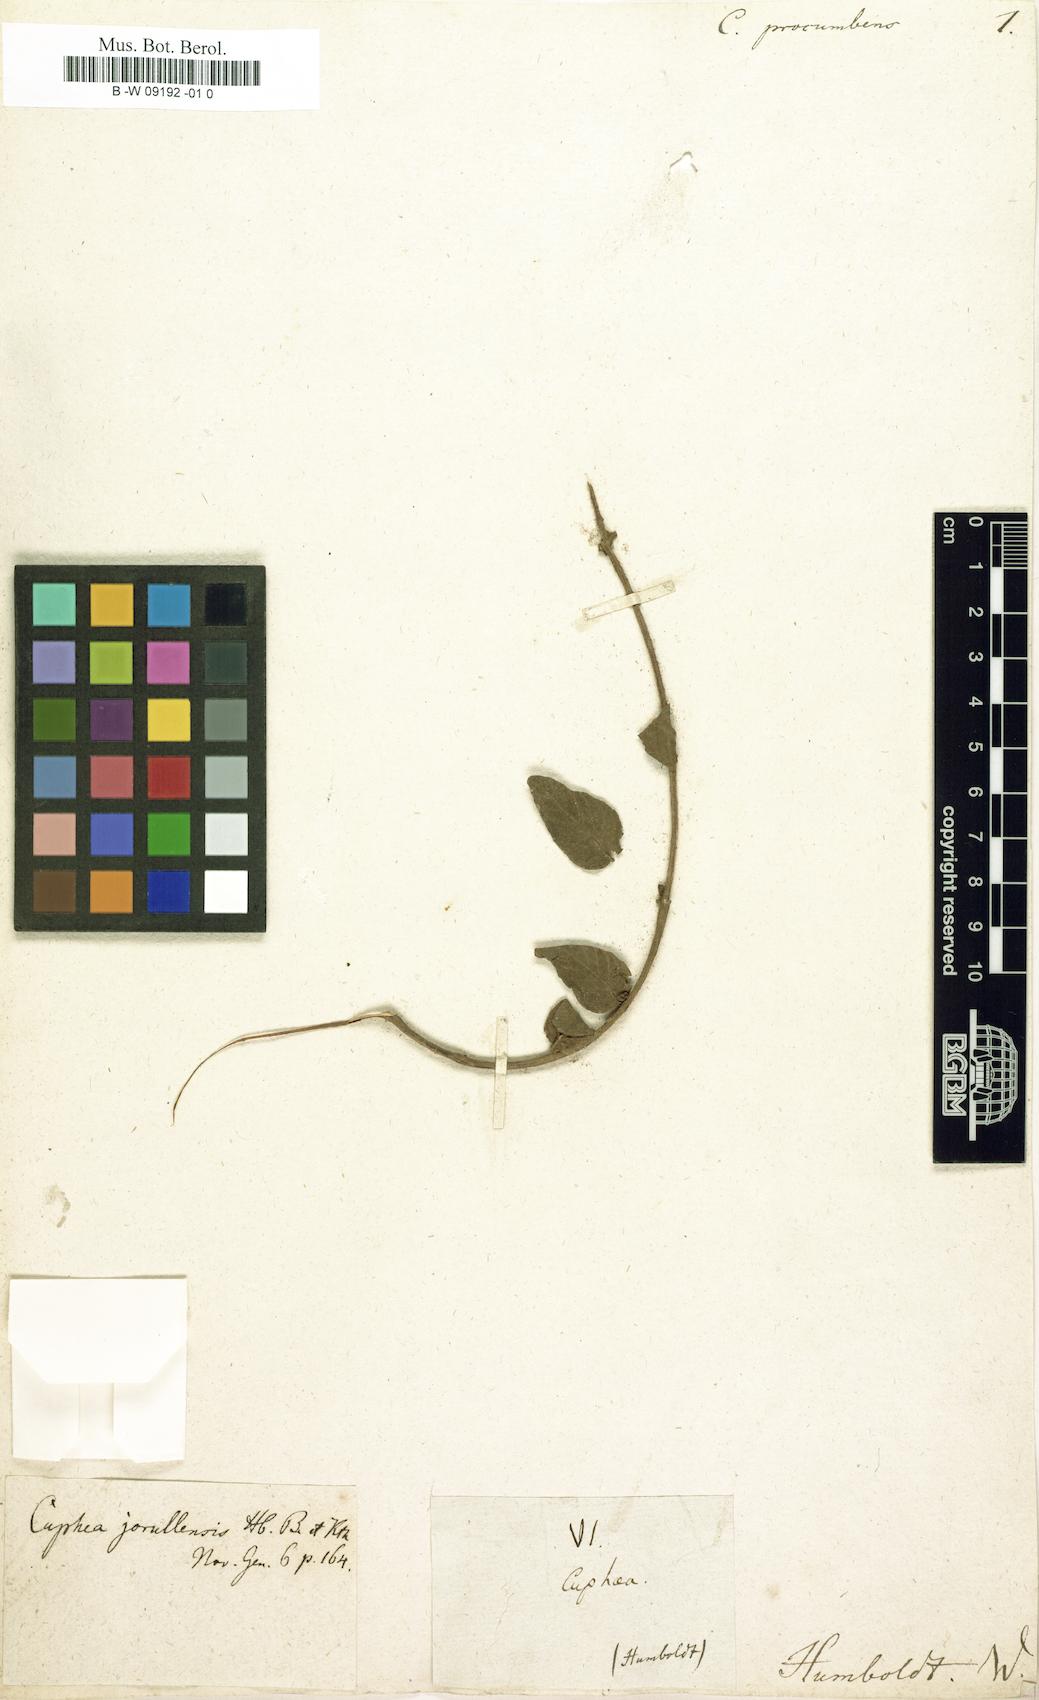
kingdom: Plantae
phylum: Tracheophyta
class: Magnoliopsida
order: Myrtales
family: Lythraceae
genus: Cuphea
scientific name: Cuphea procumbens
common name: Creeping waxweed
